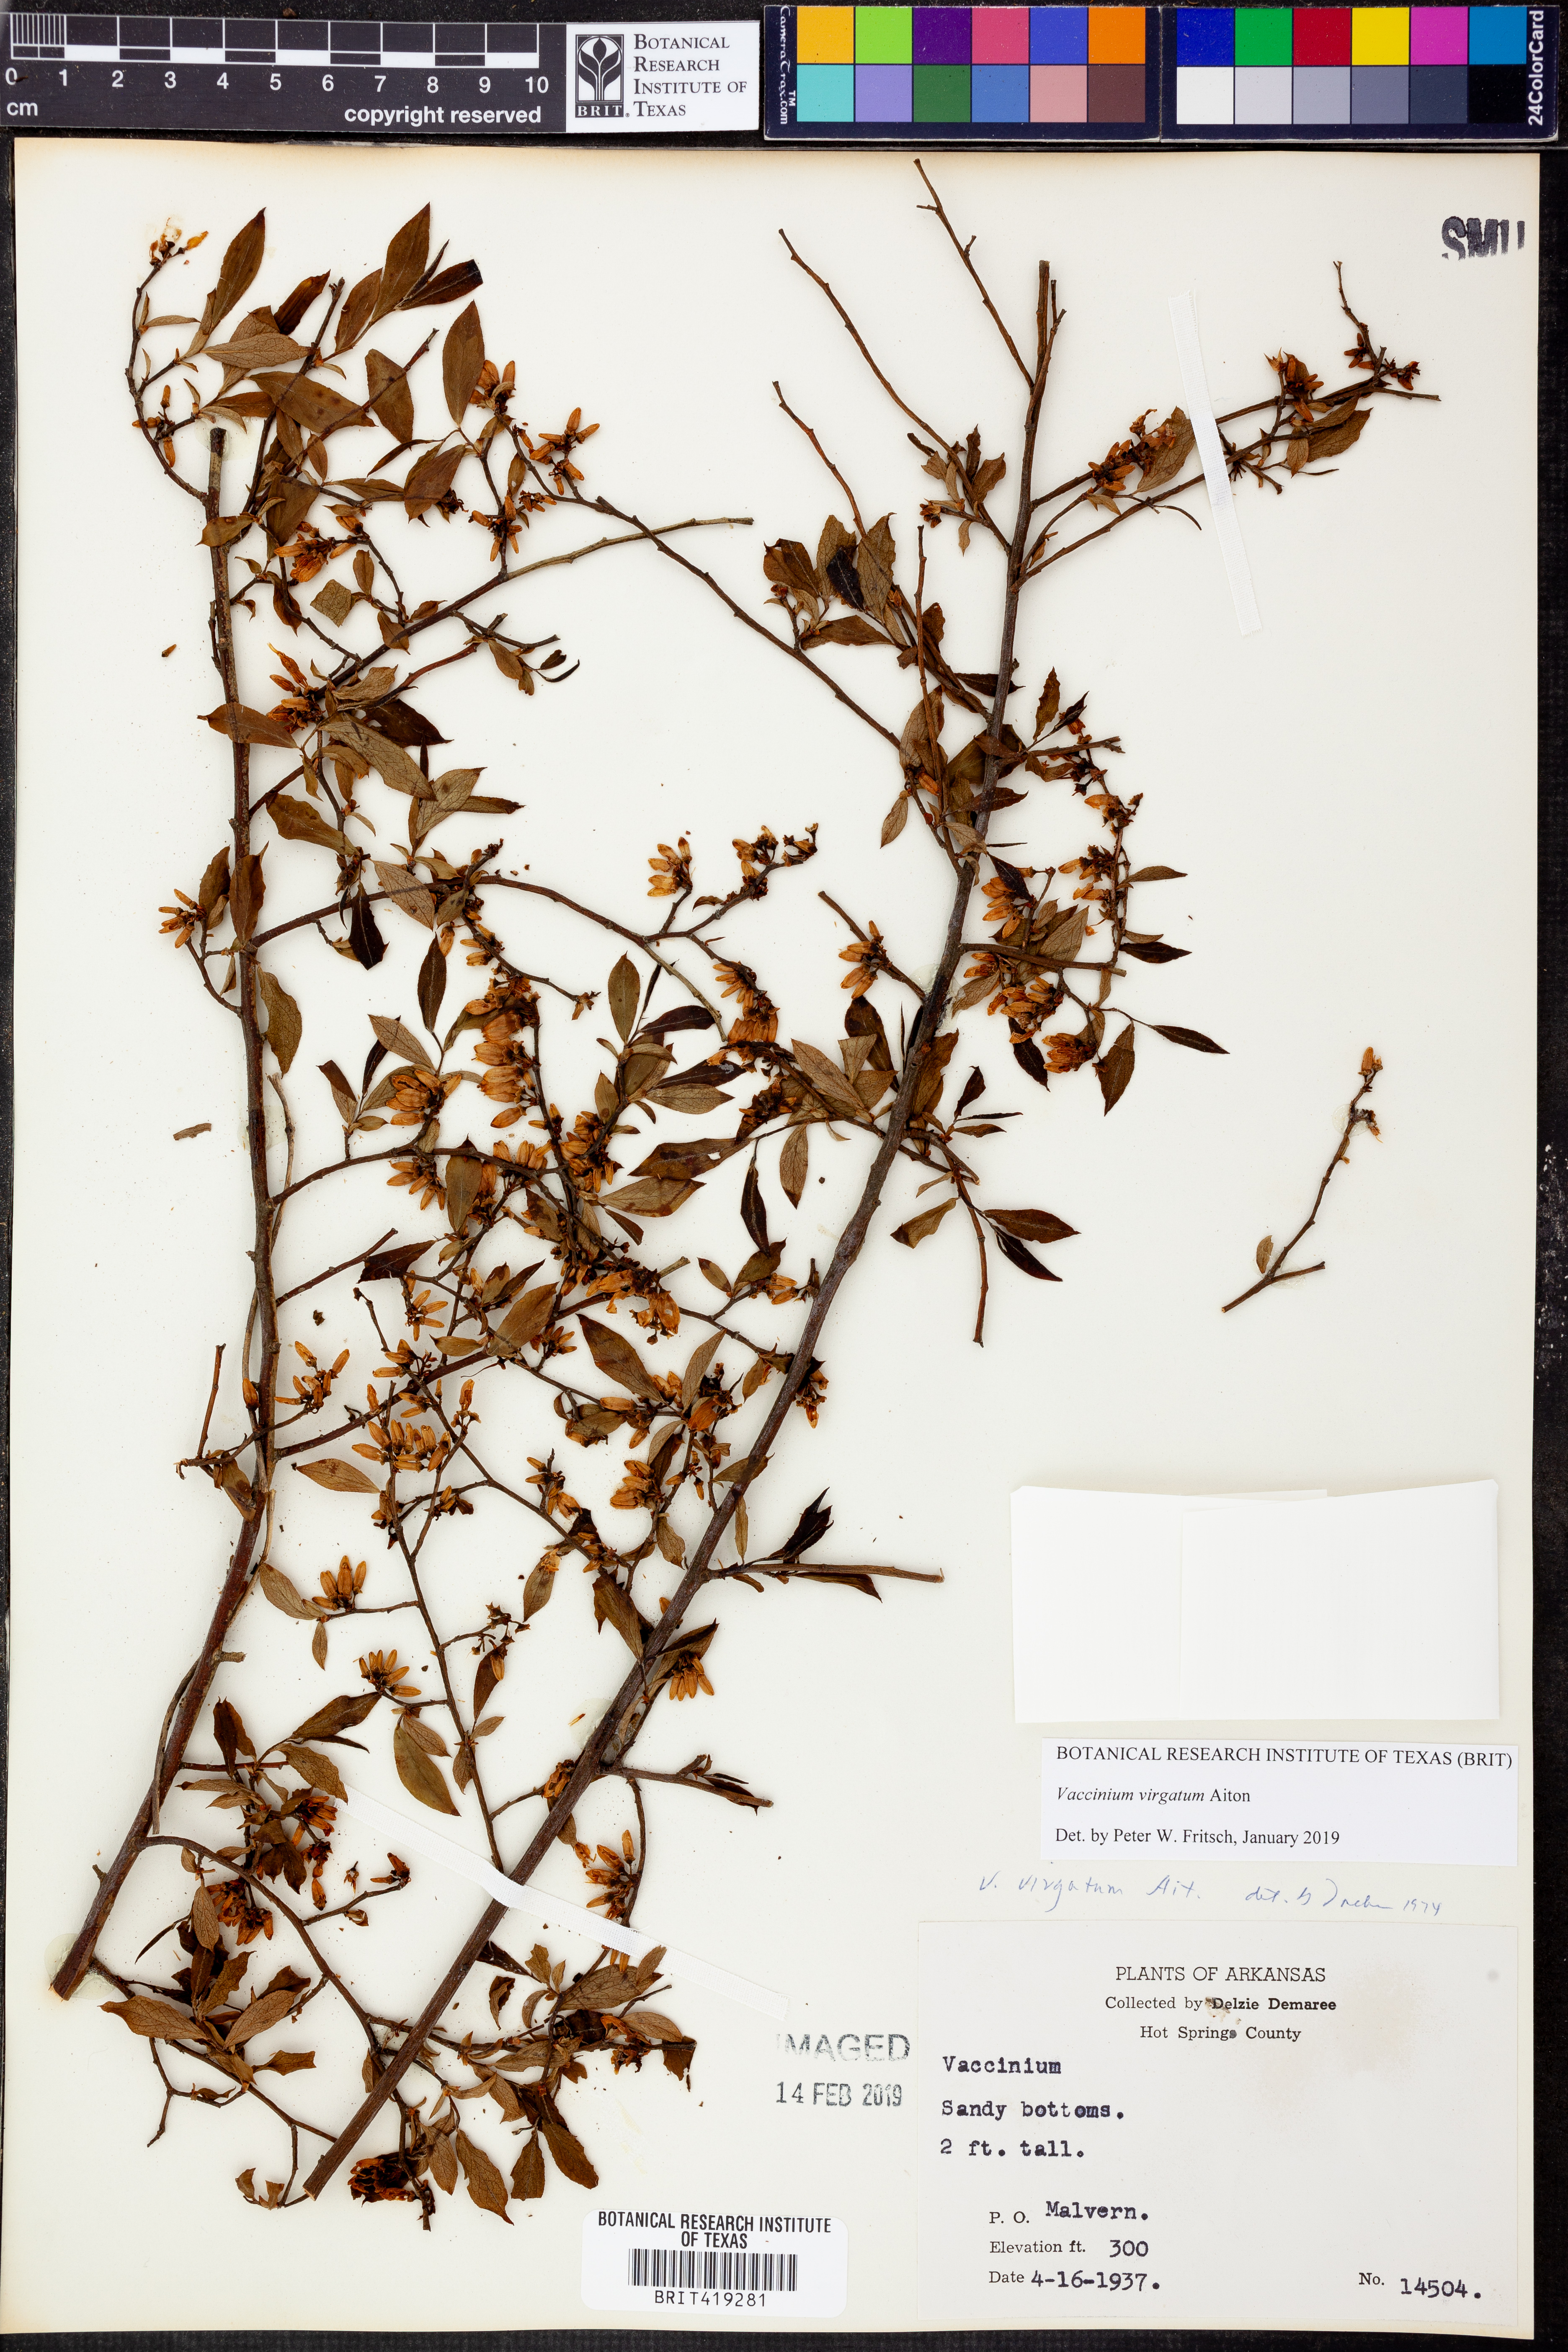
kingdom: Plantae
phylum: Tracheophyta
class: Magnoliopsida
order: Ericales
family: Ericaceae
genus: Vaccinium
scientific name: Vaccinium corymbosum
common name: Blueberry
